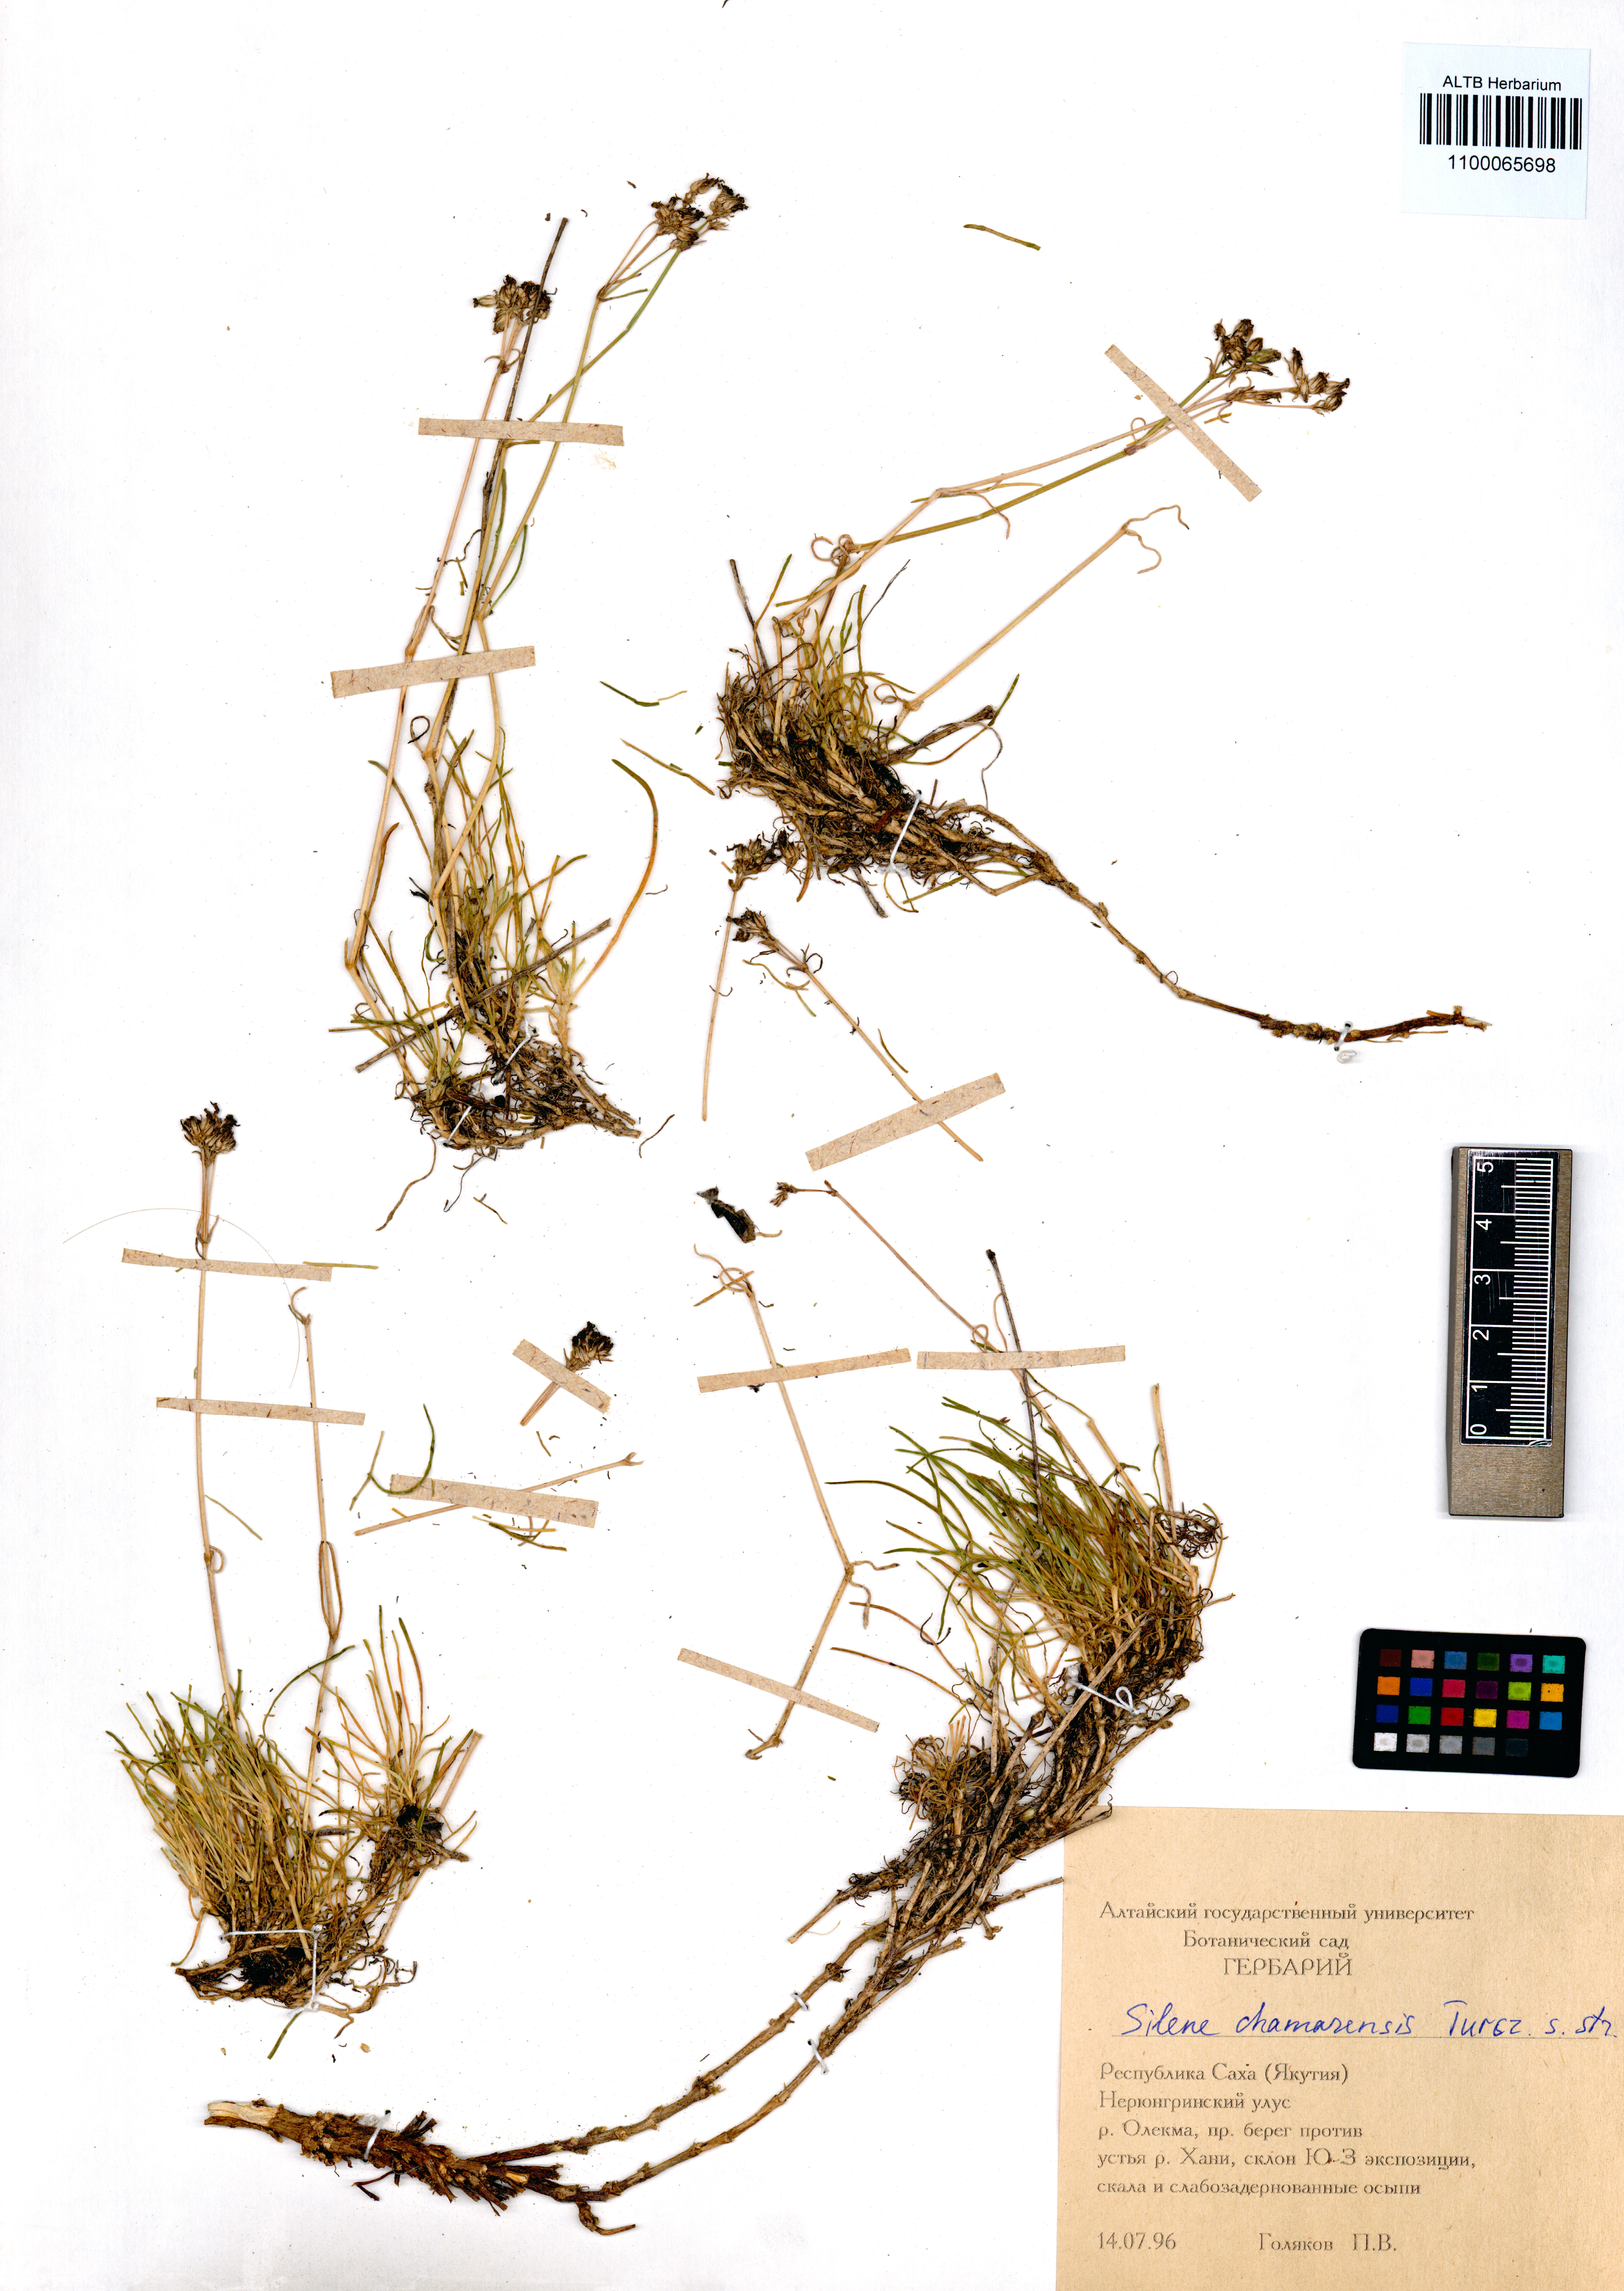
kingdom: Plantae
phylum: Tracheophyta
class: Magnoliopsida
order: Caryophyllales
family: Caryophyllaceae
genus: Silene
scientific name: Silene chamarensis
